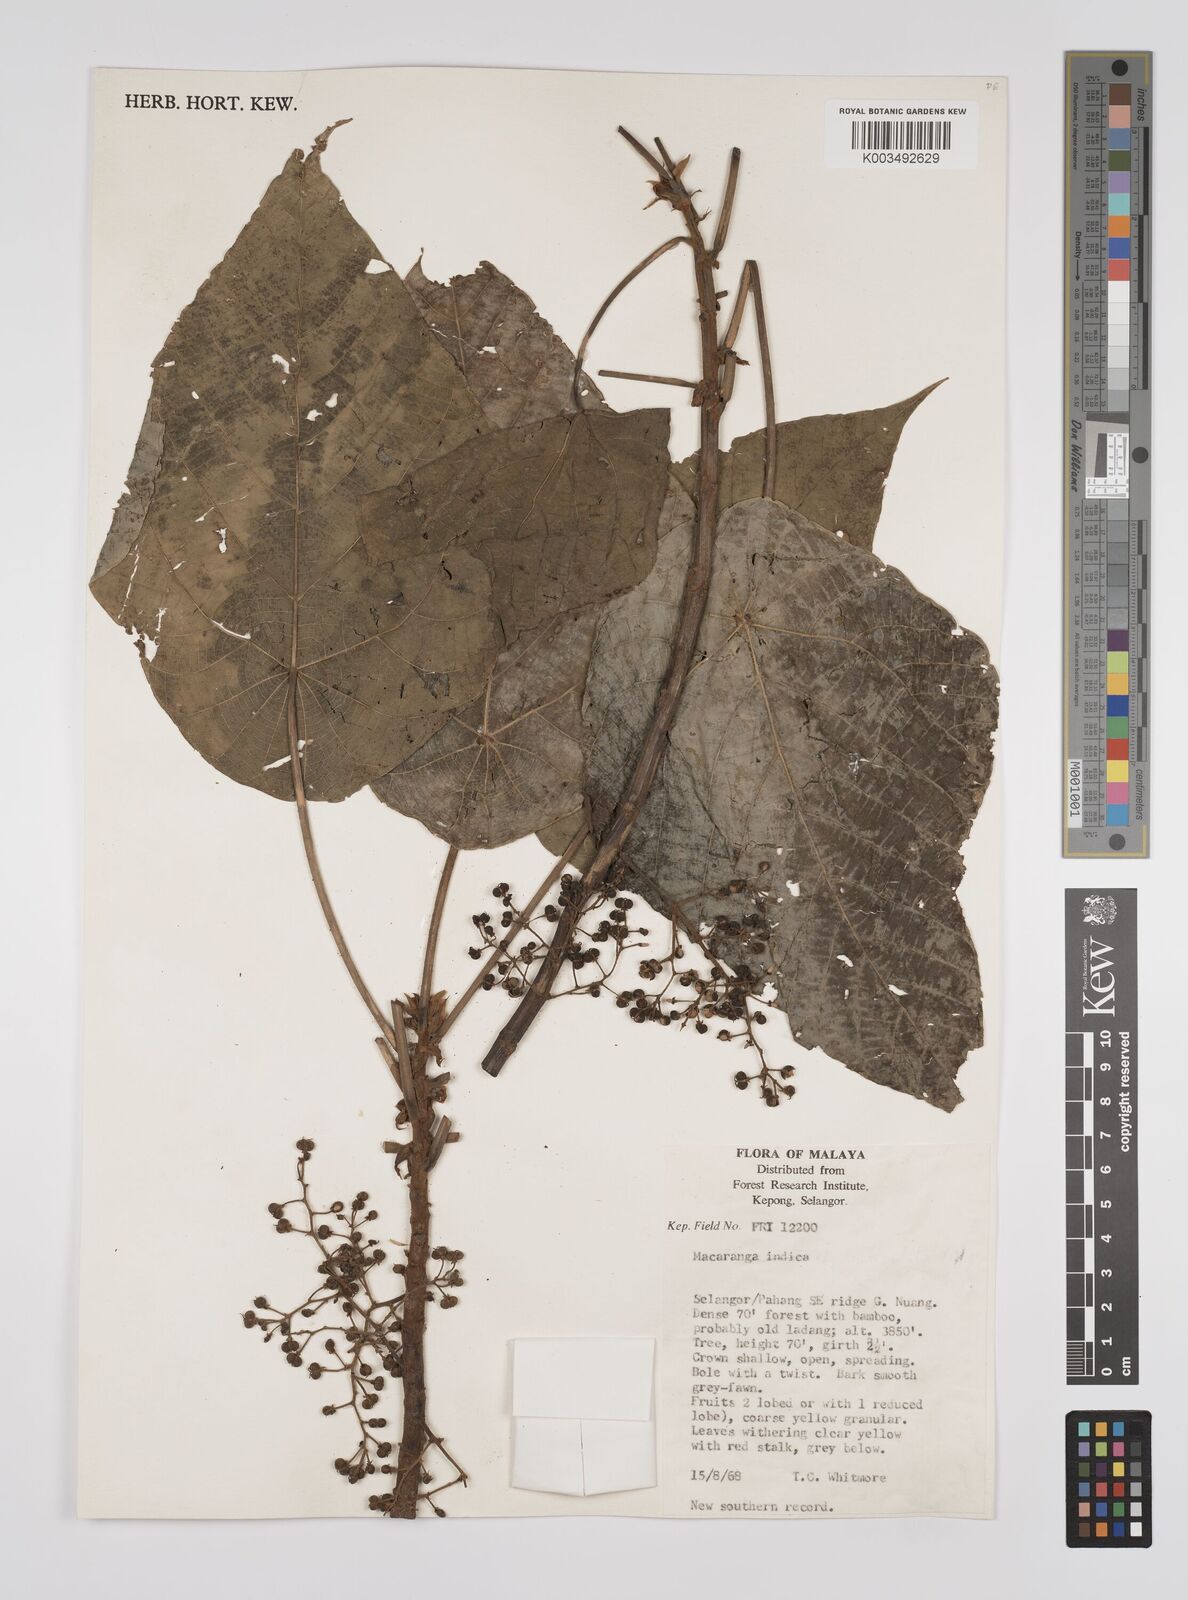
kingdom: Plantae
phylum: Tracheophyta
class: Magnoliopsida
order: Malpighiales
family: Euphorbiaceae
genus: Macaranga
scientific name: Macaranga indica
